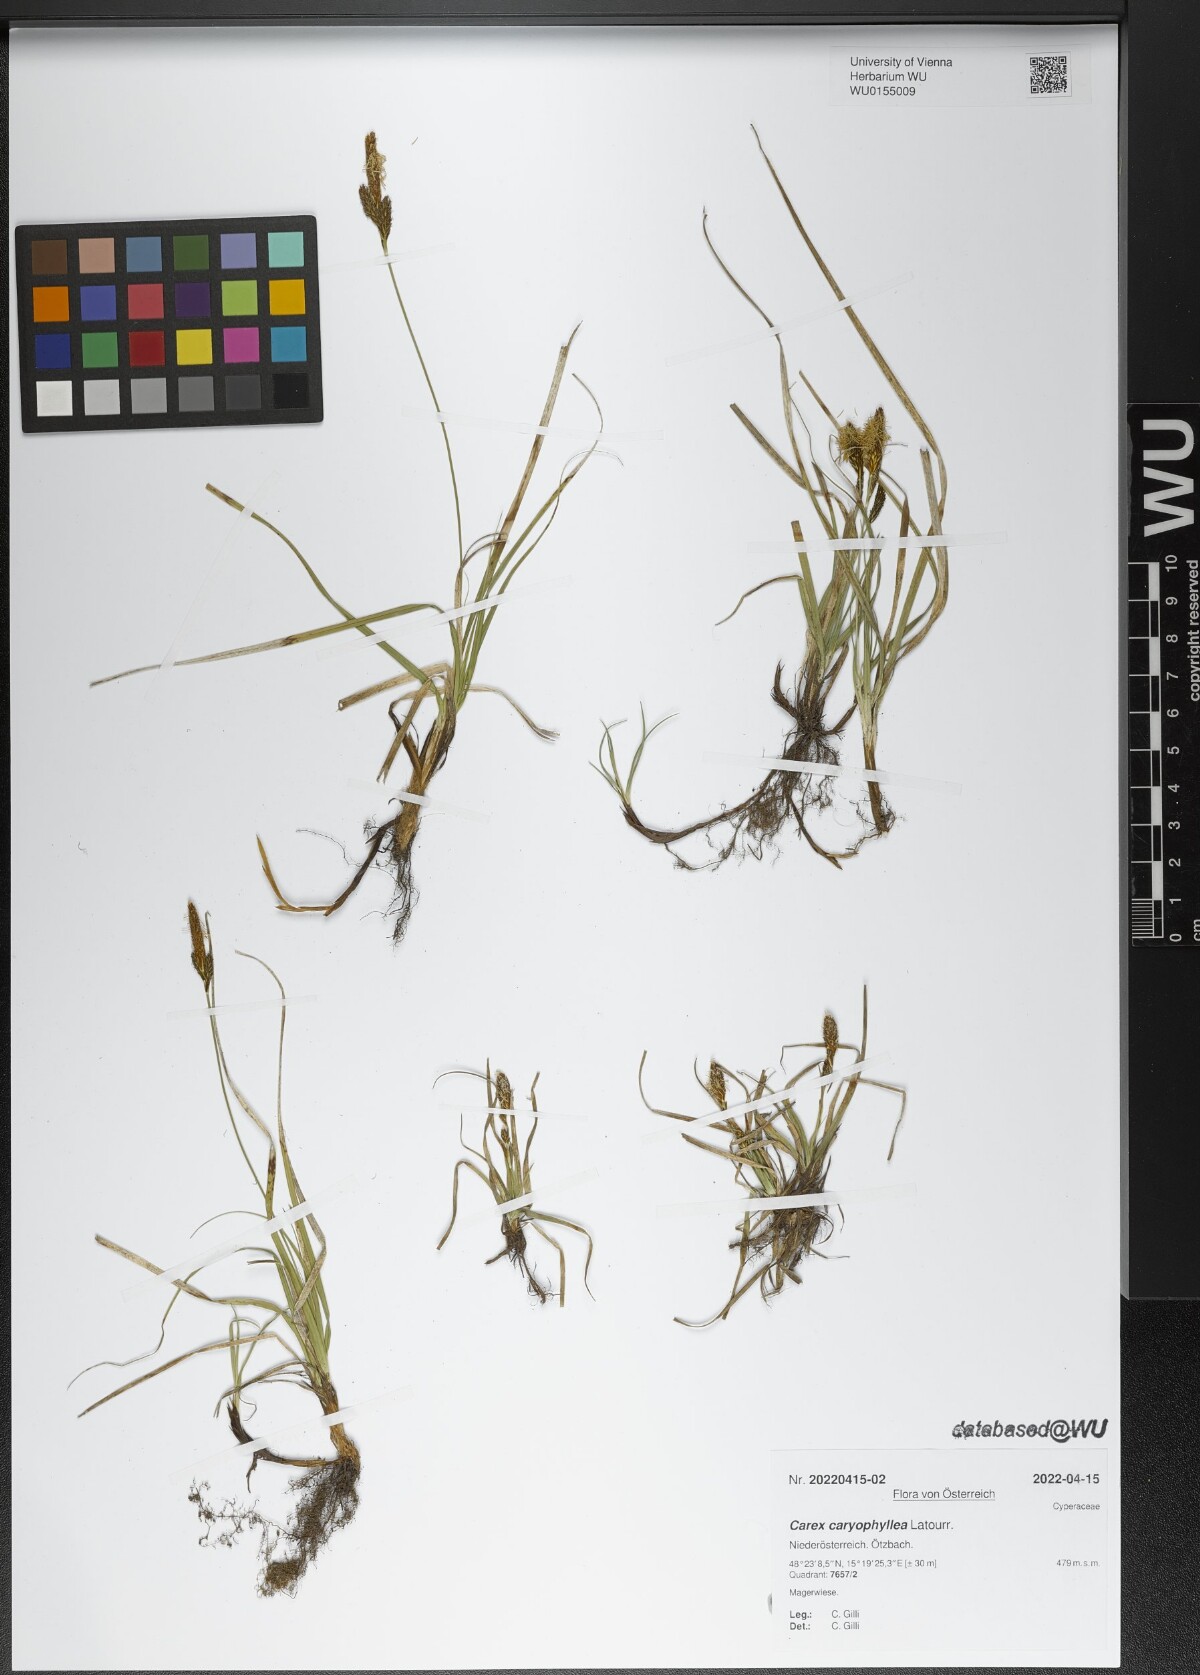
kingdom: Plantae
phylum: Tracheophyta
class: Liliopsida
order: Poales
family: Cyperaceae
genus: Carex
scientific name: Carex caryophyllea
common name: Spring sedge
